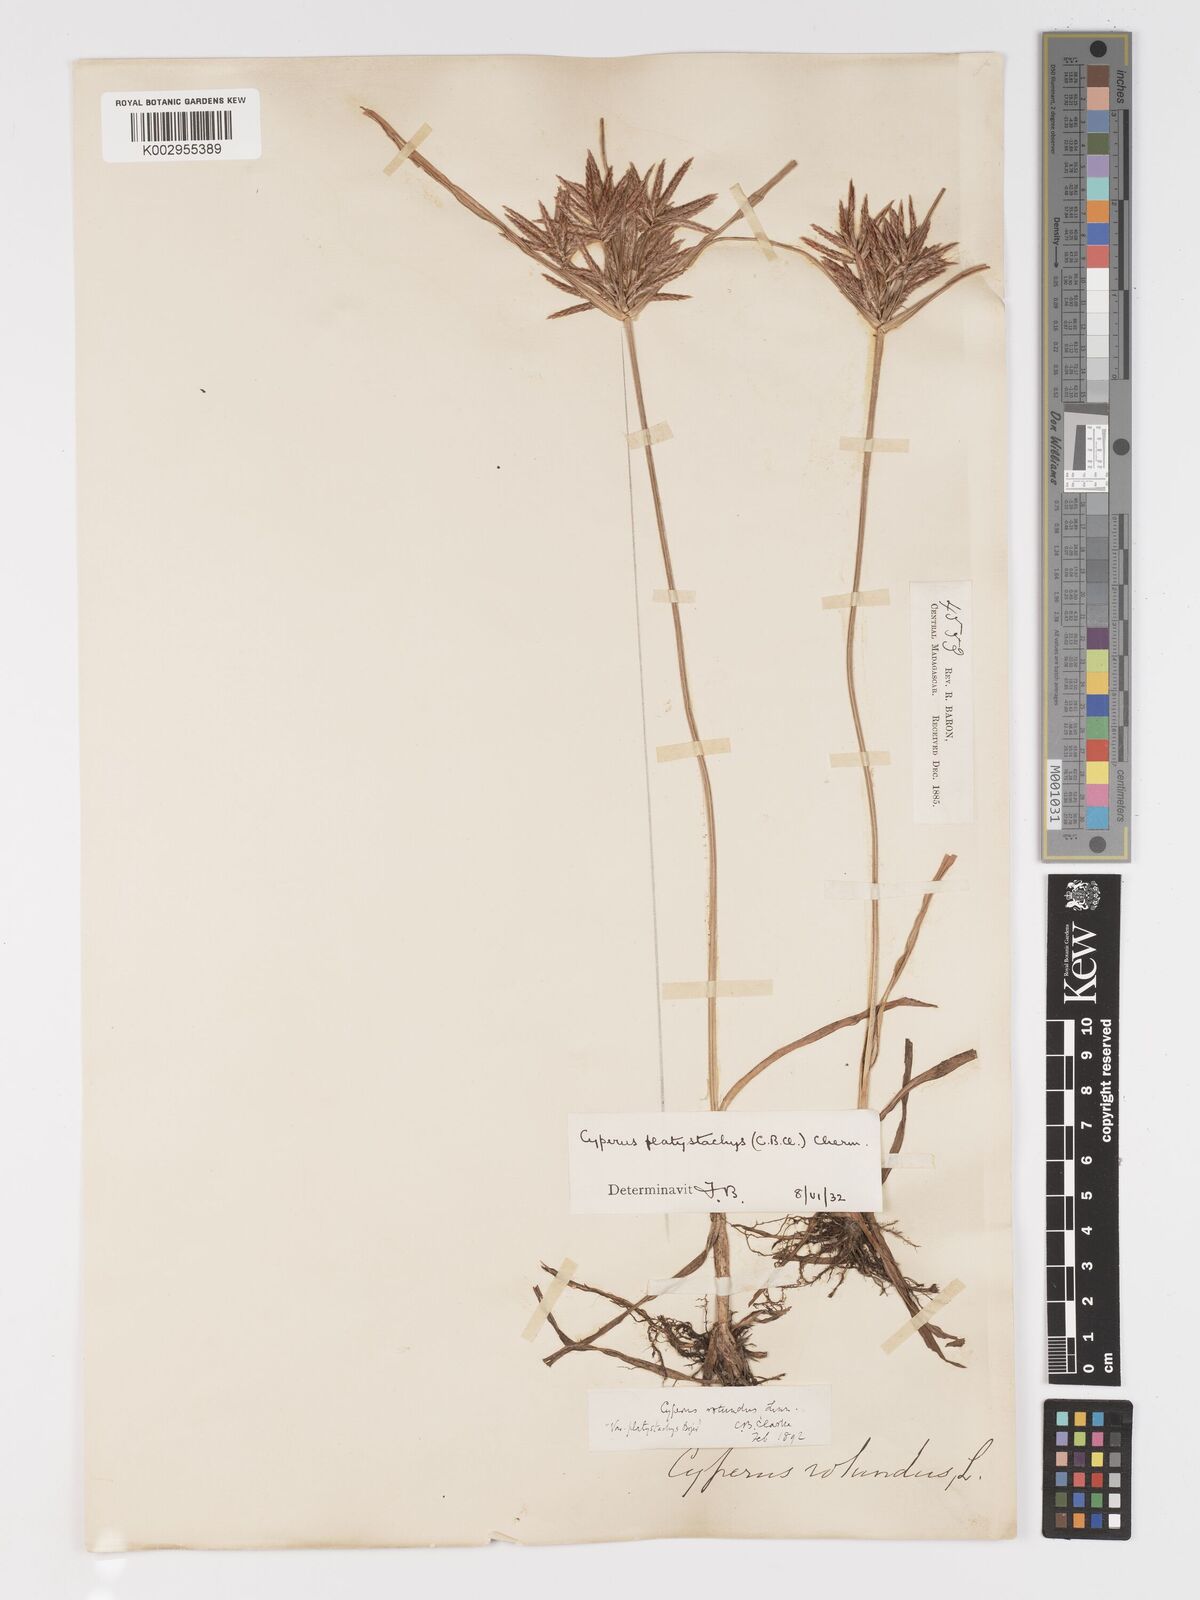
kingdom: Plantae
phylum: Tracheophyta
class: Liliopsida
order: Poales
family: Cyperaceae
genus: Cyperus
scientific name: Cyperus tuberosus
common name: Nut grass
